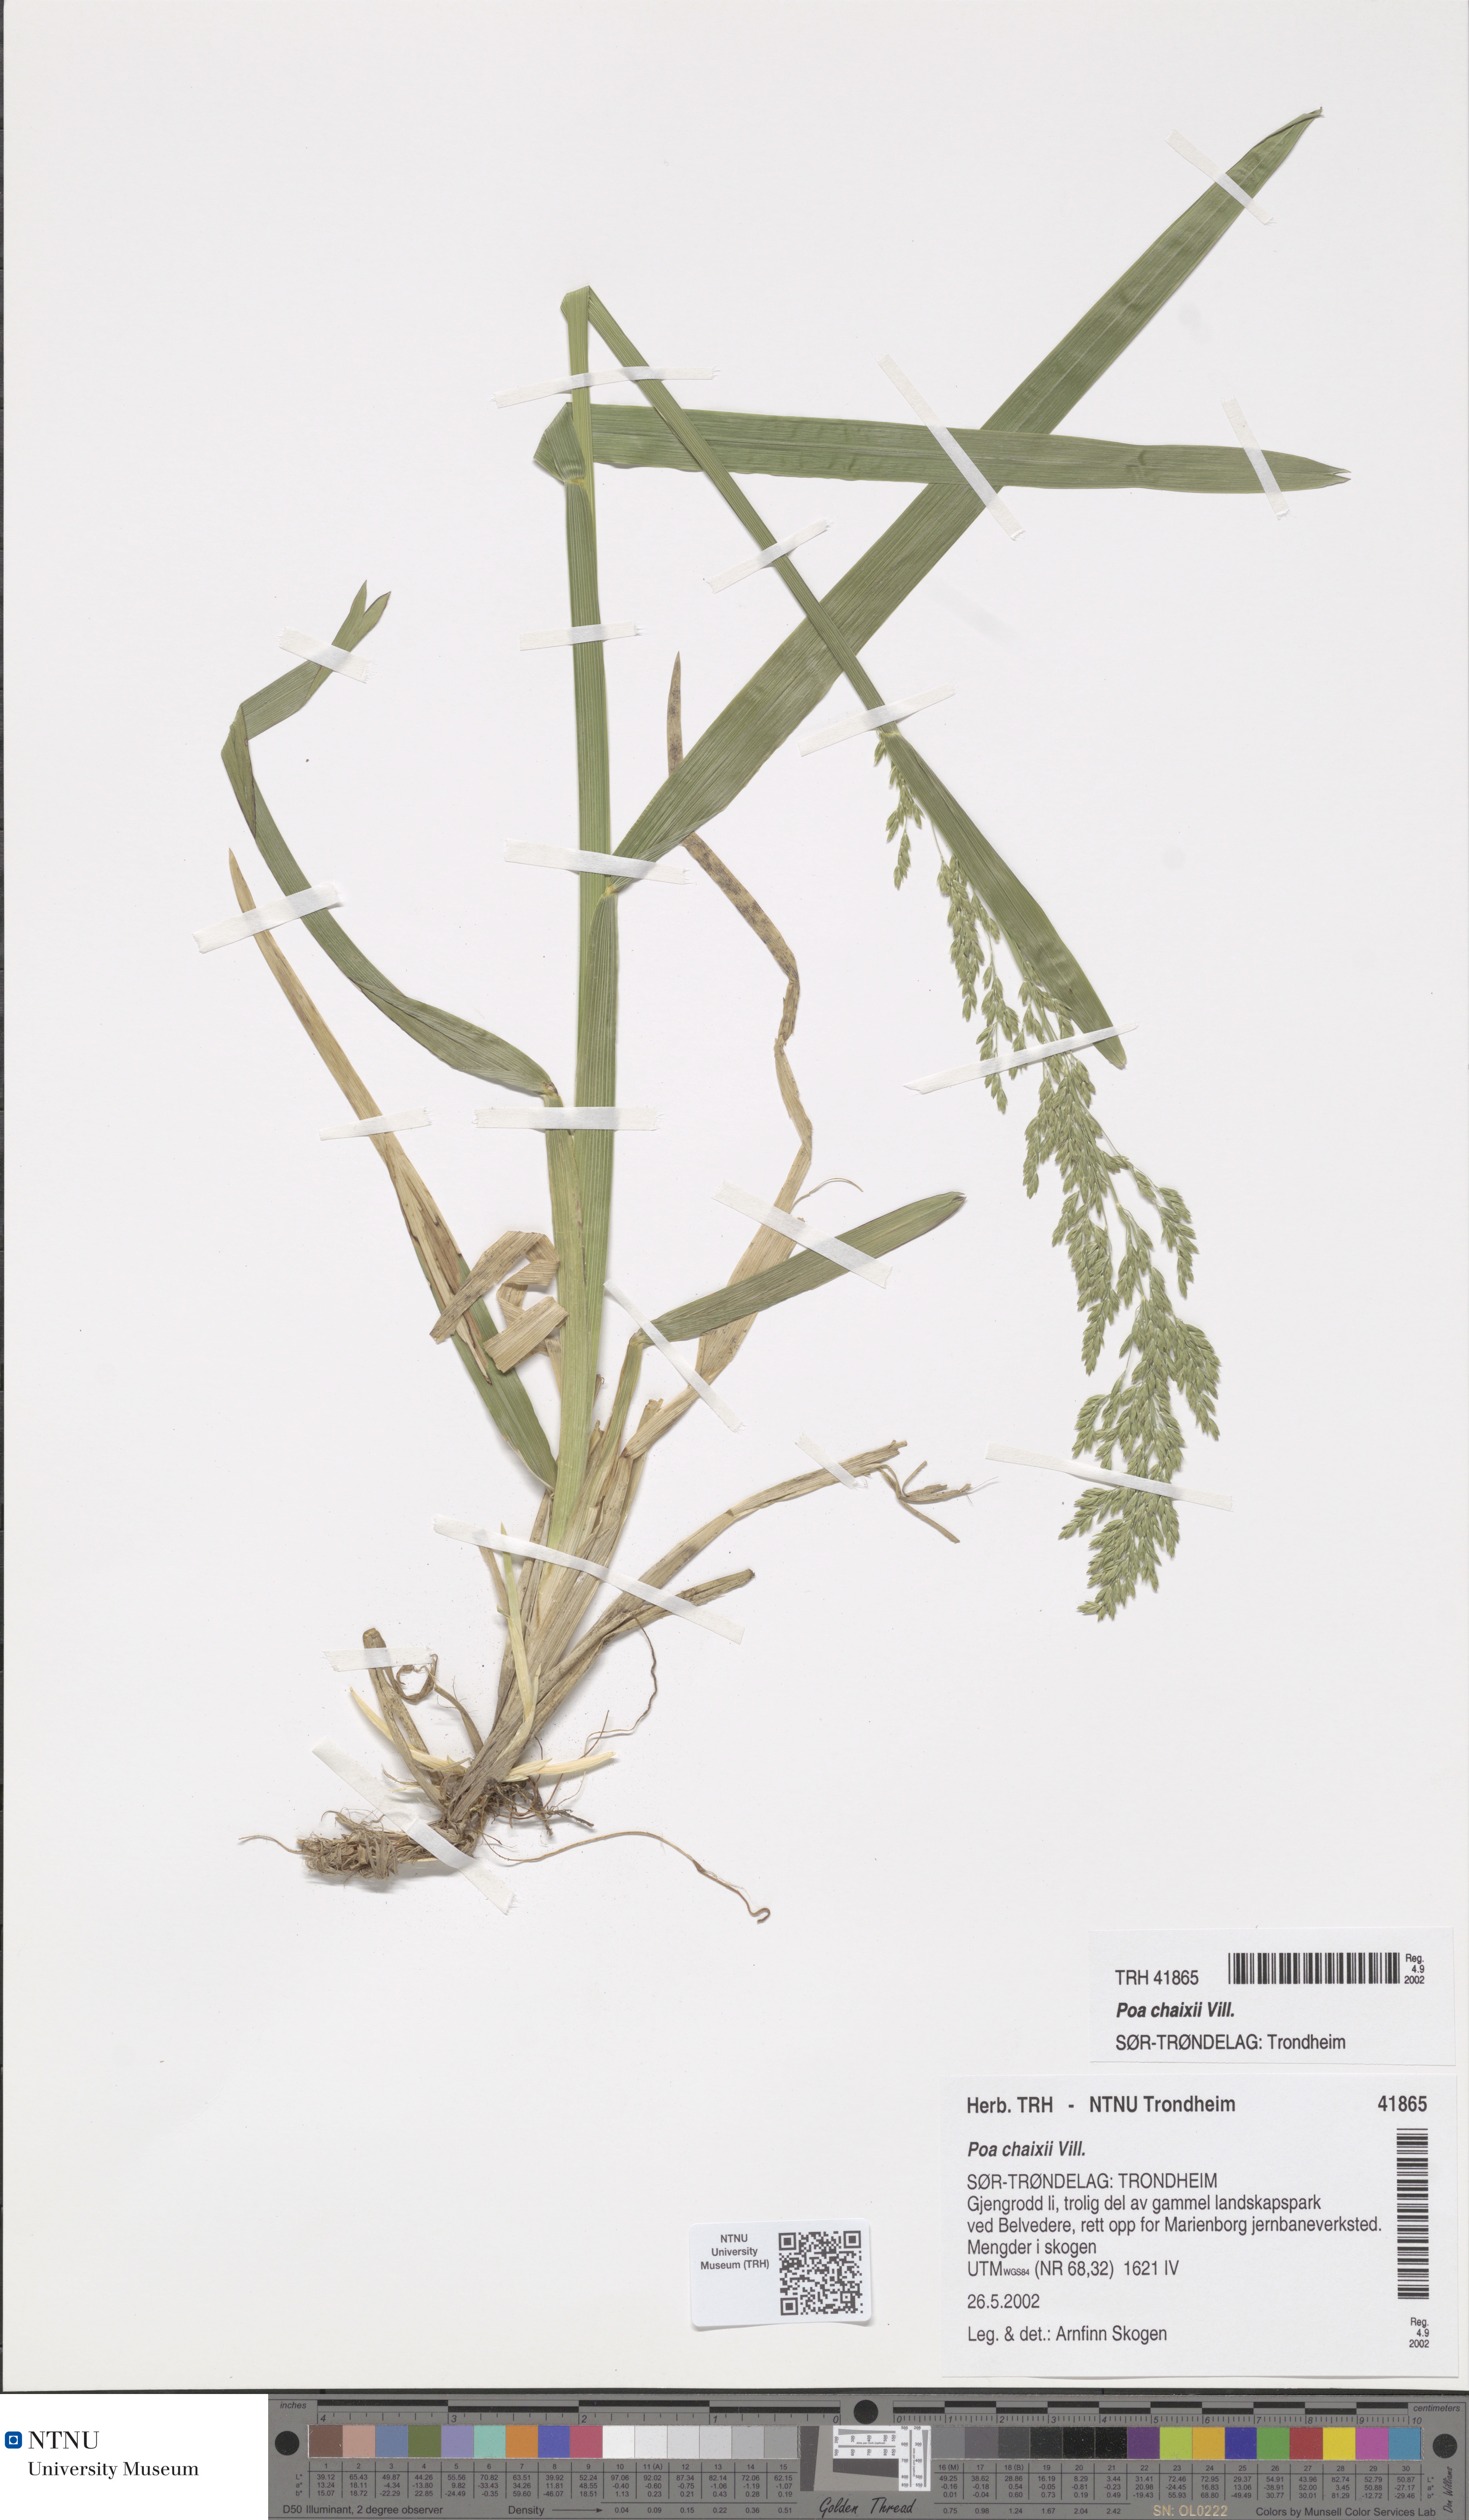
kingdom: Plantae
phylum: Tracheophyta
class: Liliopsida
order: Poales
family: Poaceae
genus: Poa
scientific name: Poa chaixii
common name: Broad-leaved meadow-grass
